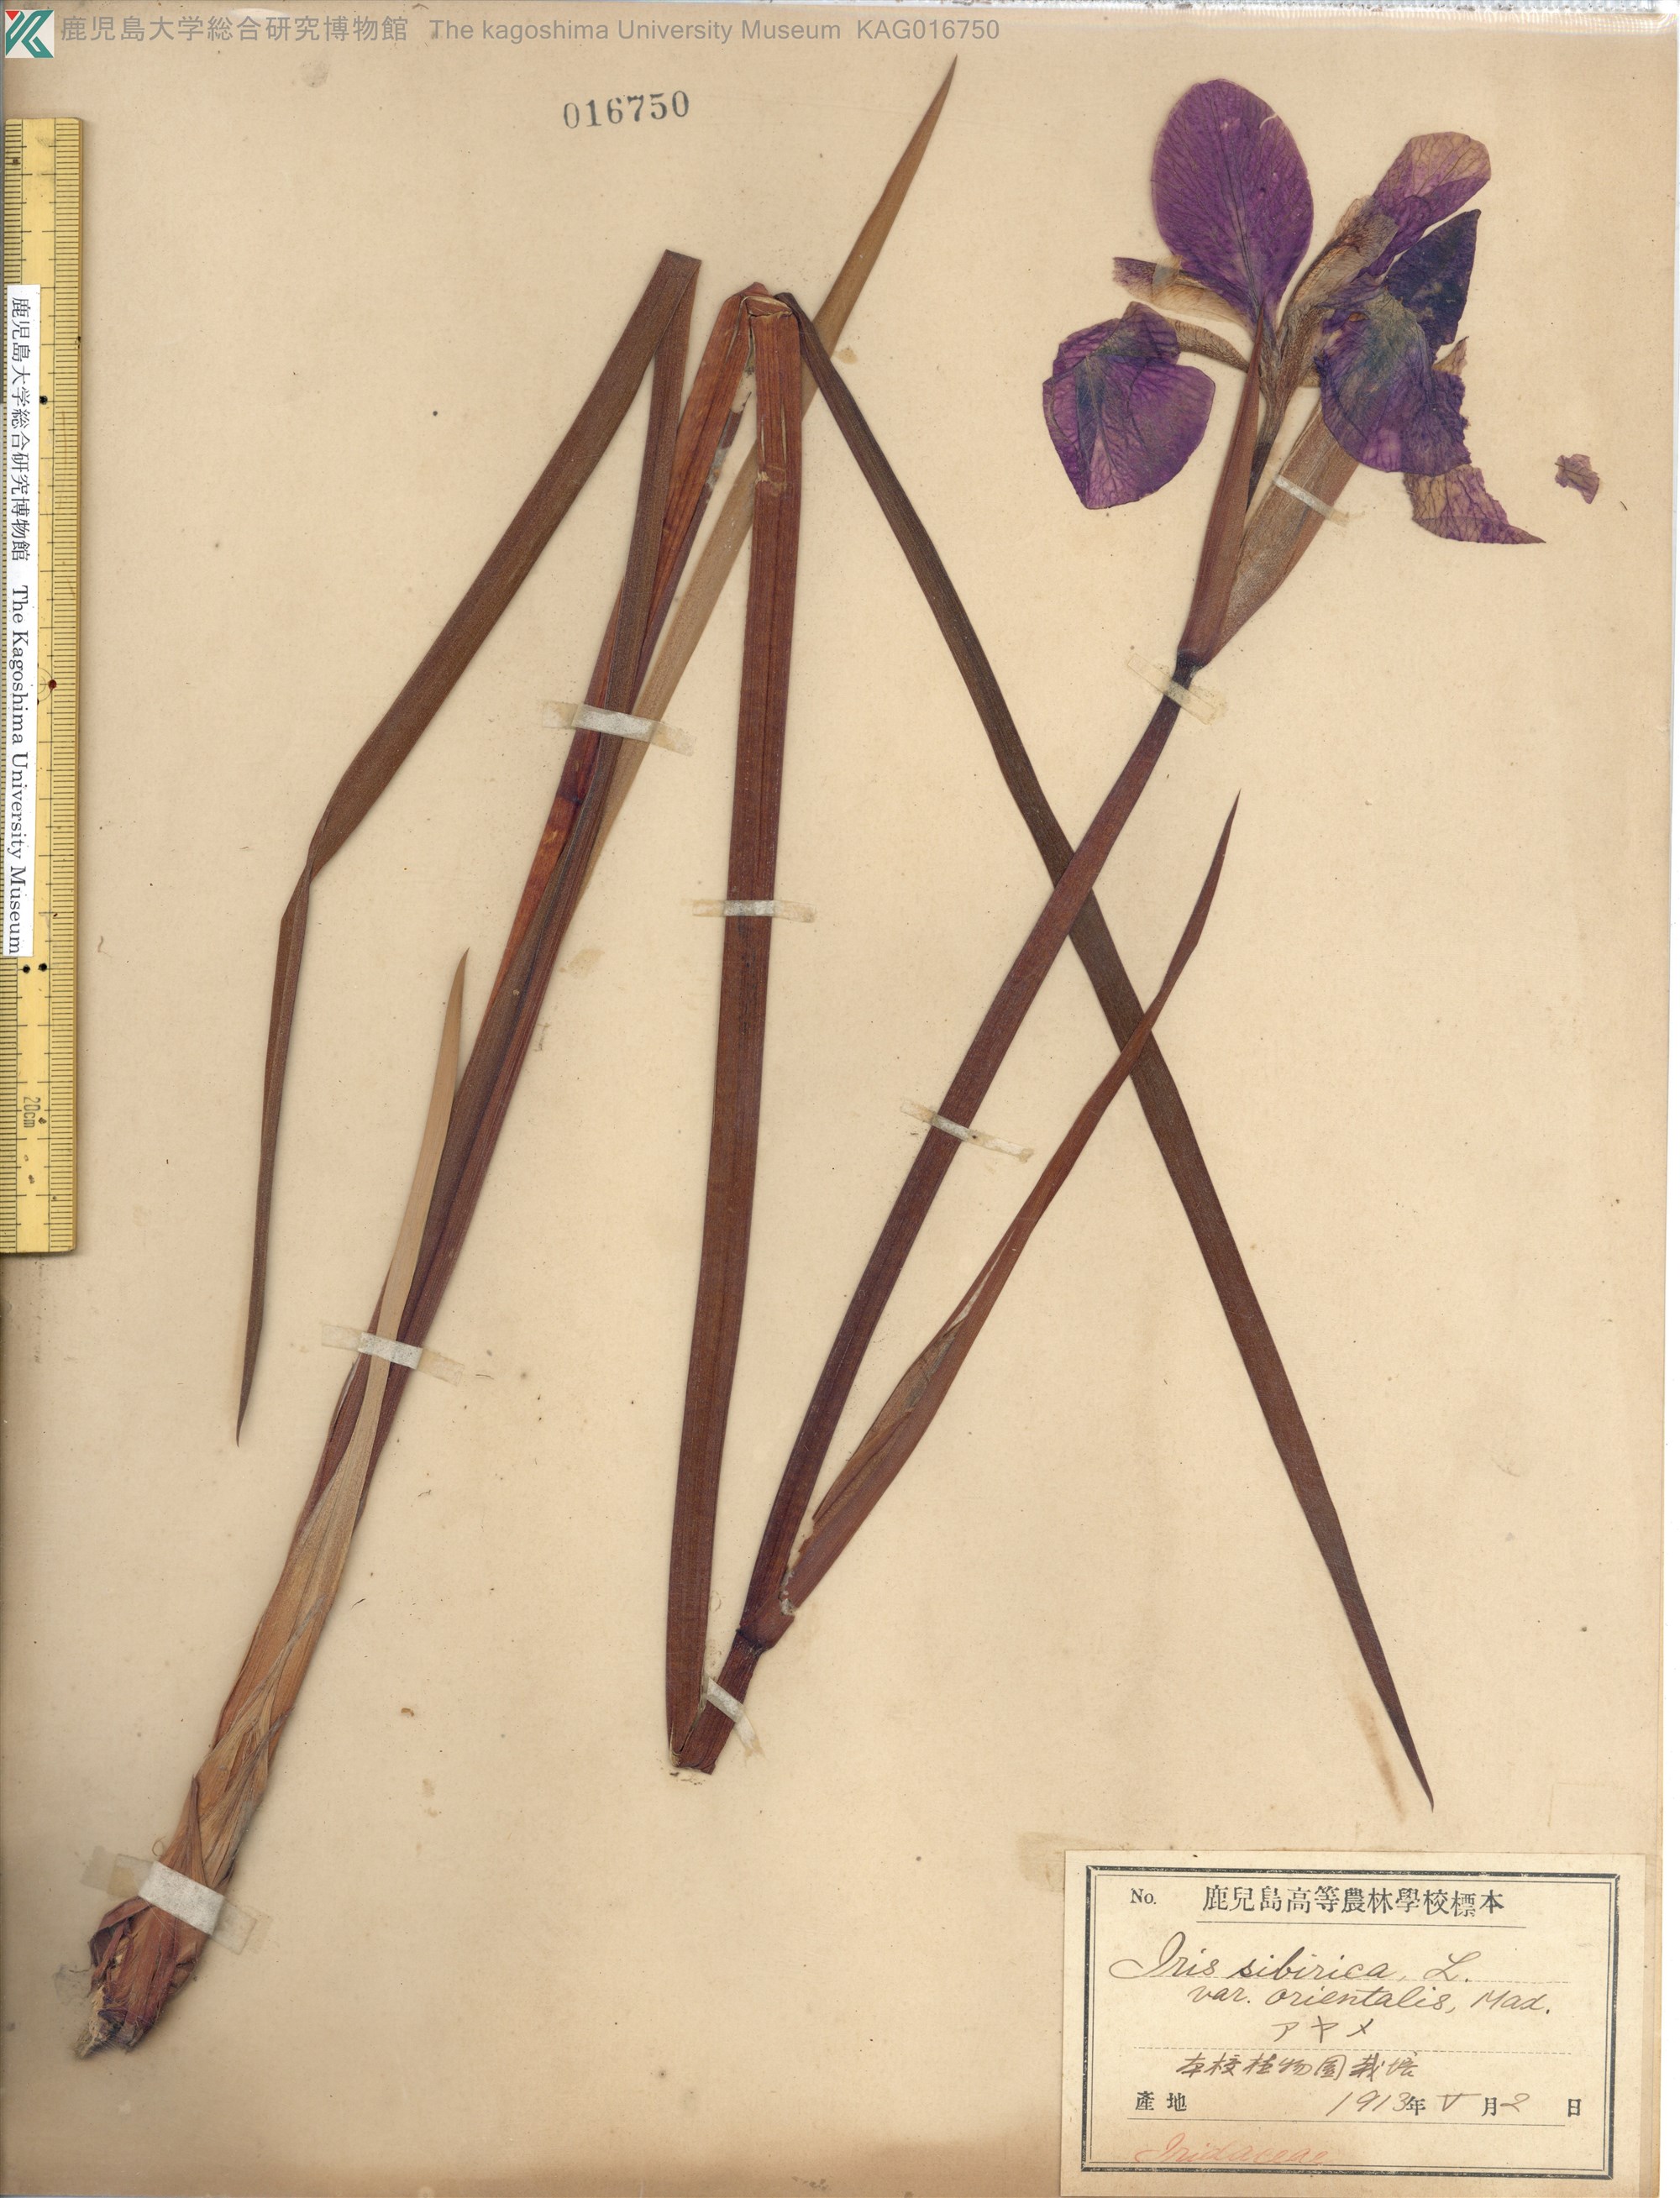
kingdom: Plantae
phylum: Tracheophyta
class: Liliopsida
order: Asparagales
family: Iridaceae
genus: Iris
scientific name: Iris sanguinea
